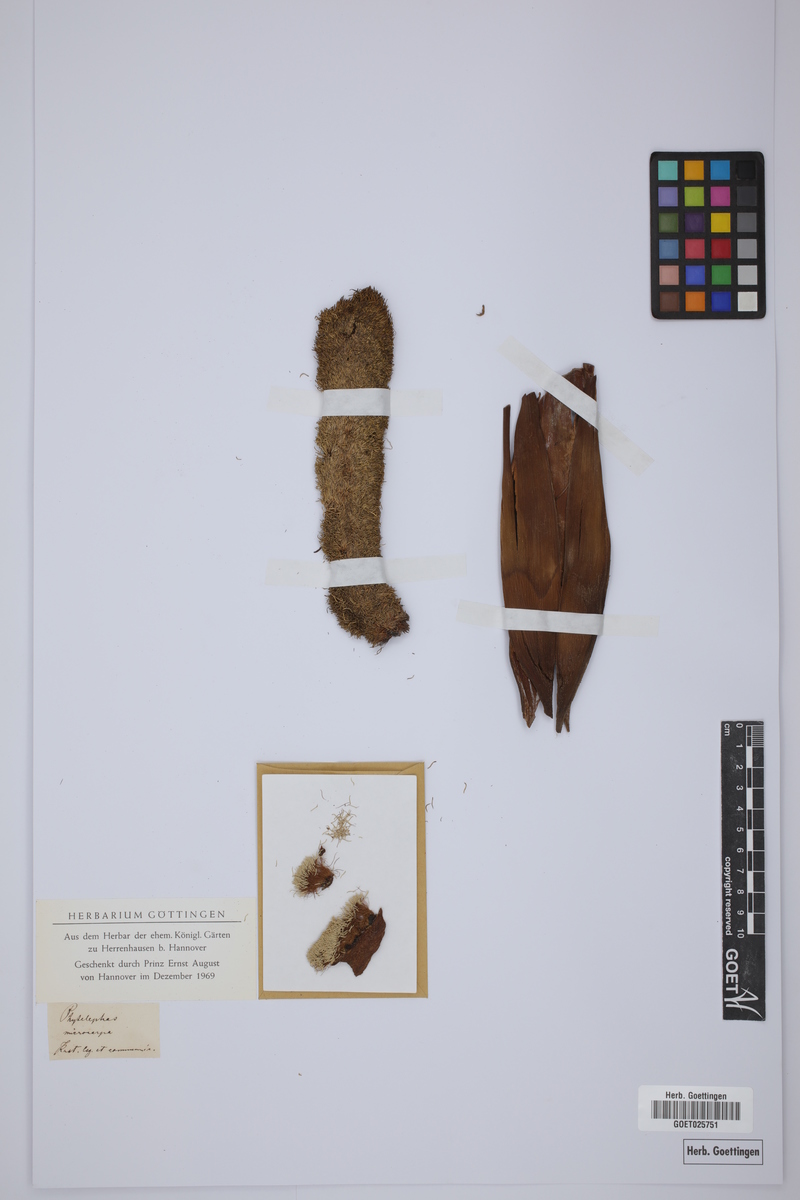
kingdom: Plantae
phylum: Tracheophyta
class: Liliopsida
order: Arecales
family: Arecaceae
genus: Phytelephas
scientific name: Phytelephas macrocarpa
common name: Ivory palm
